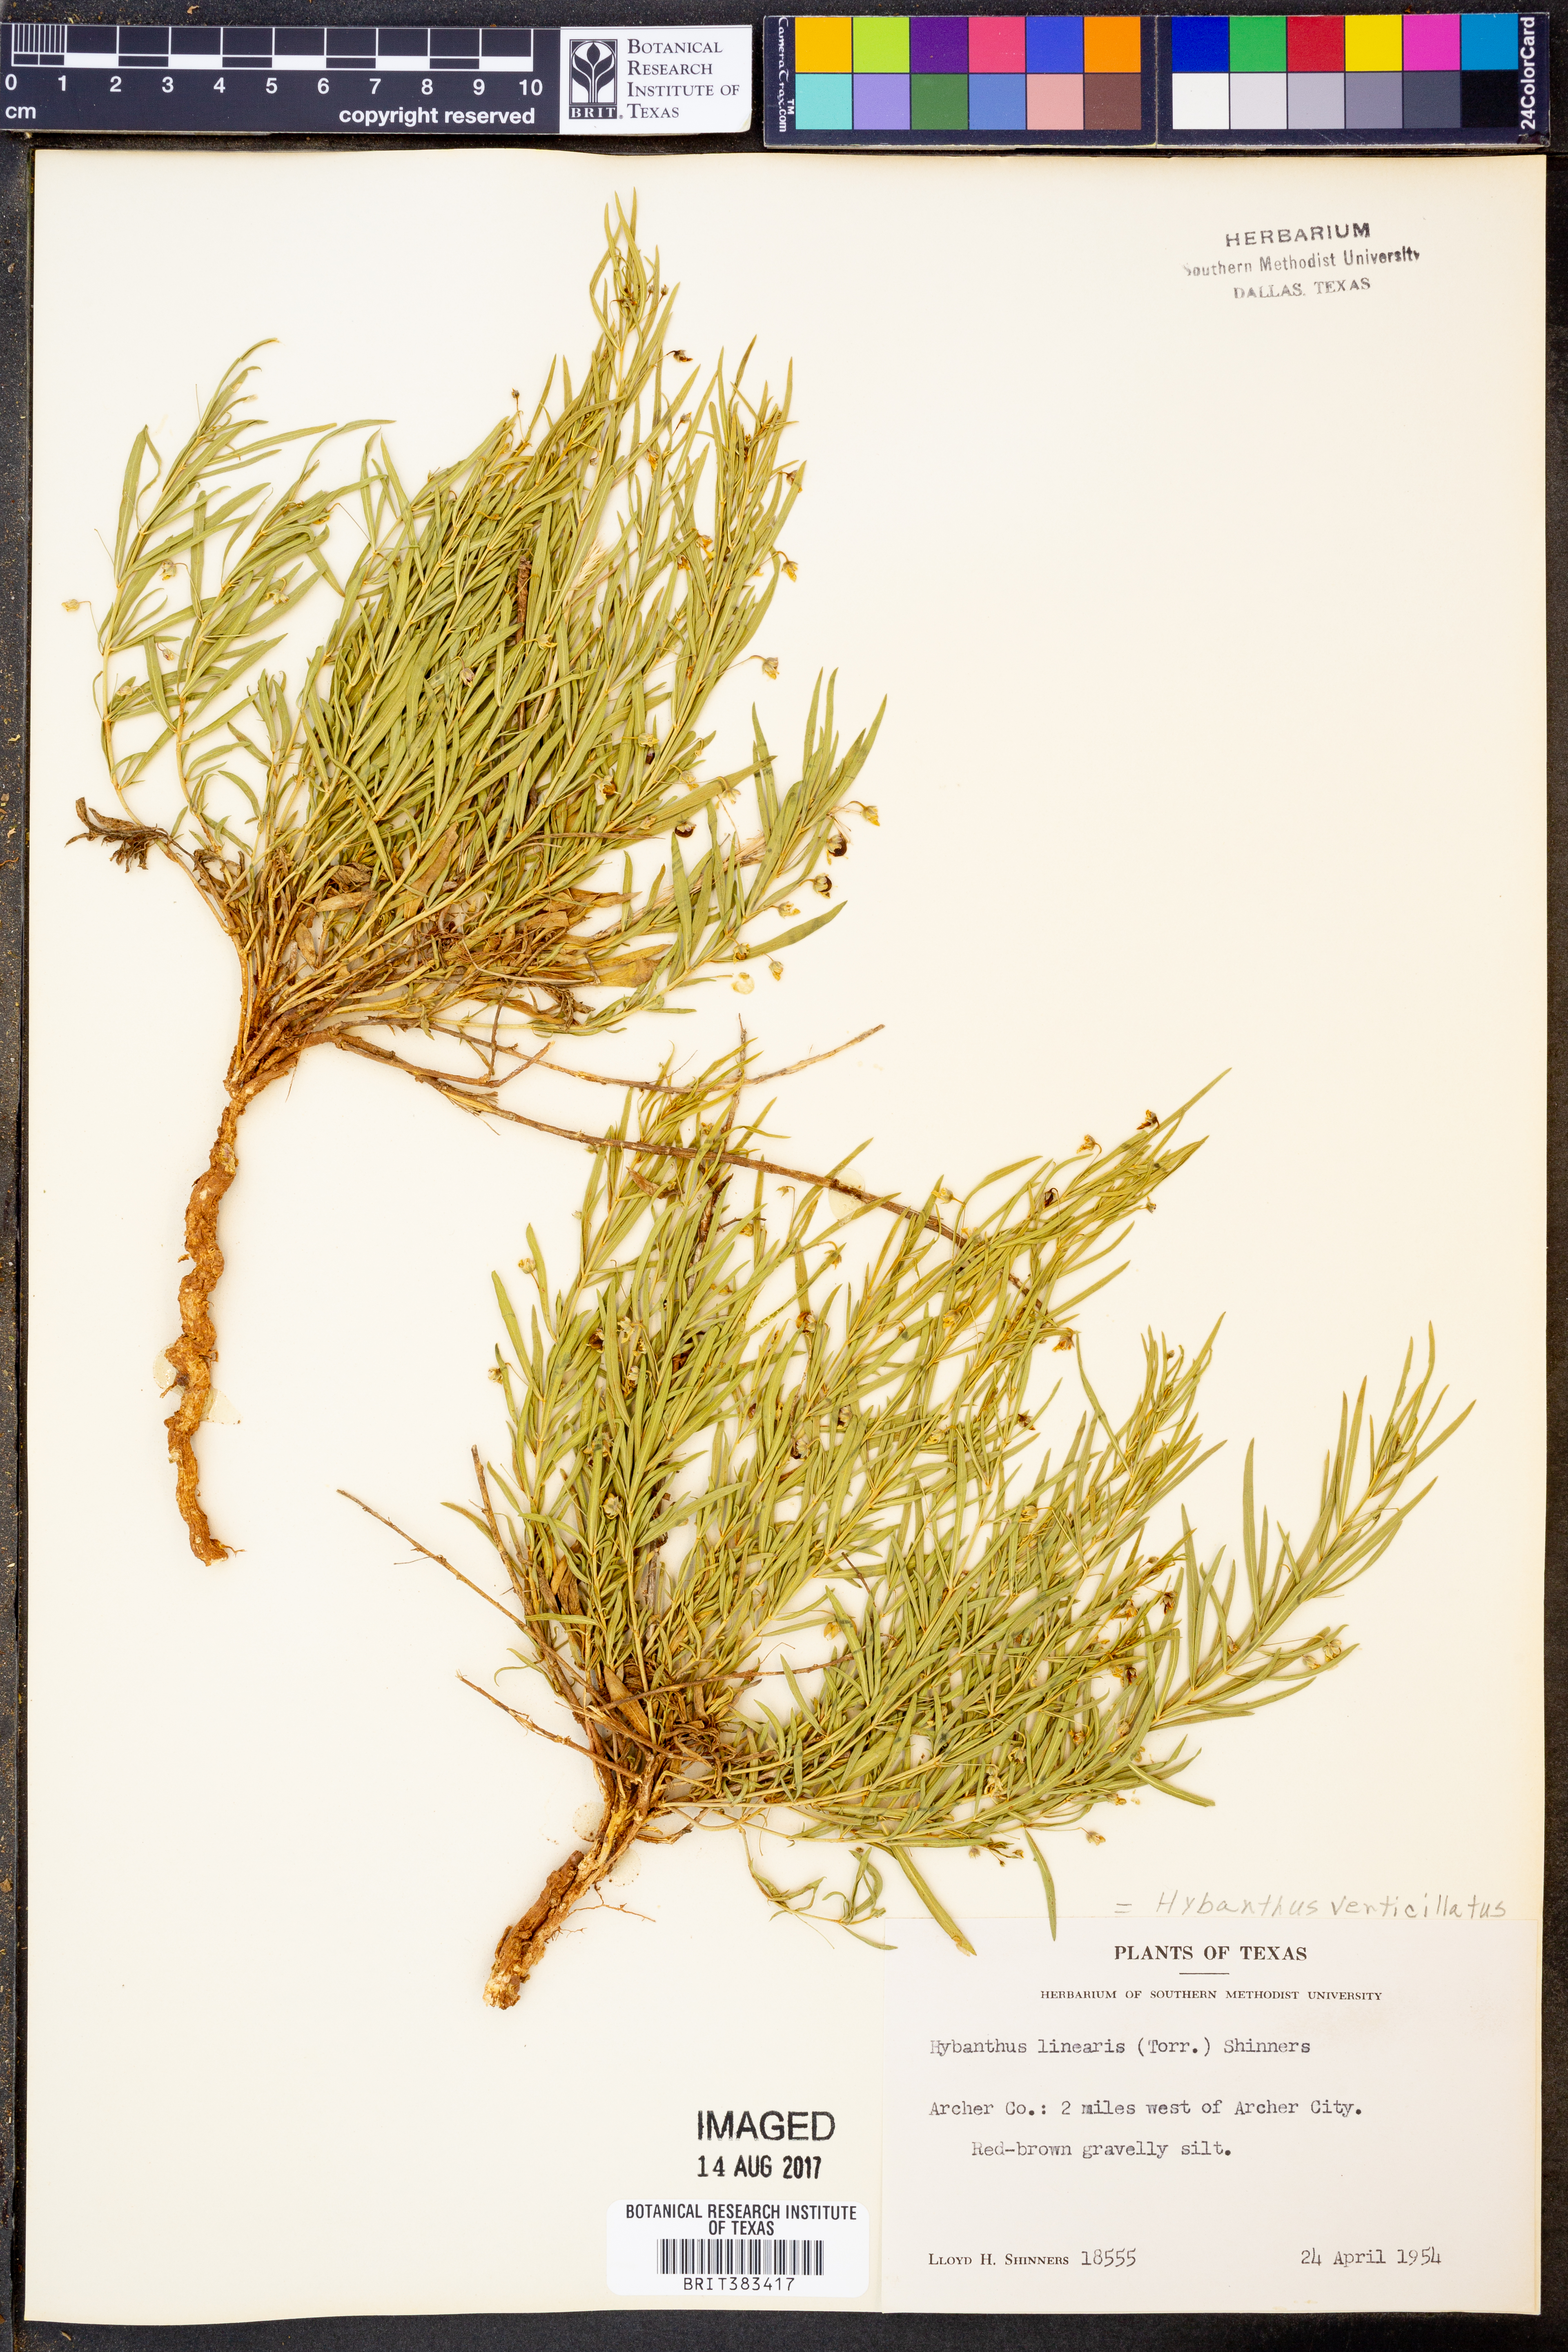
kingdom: Plantae
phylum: Tracheophyta
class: Magnoliopsida
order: Malpighiales
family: Violaceae
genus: Pombalia
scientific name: Pombalia verticillata
